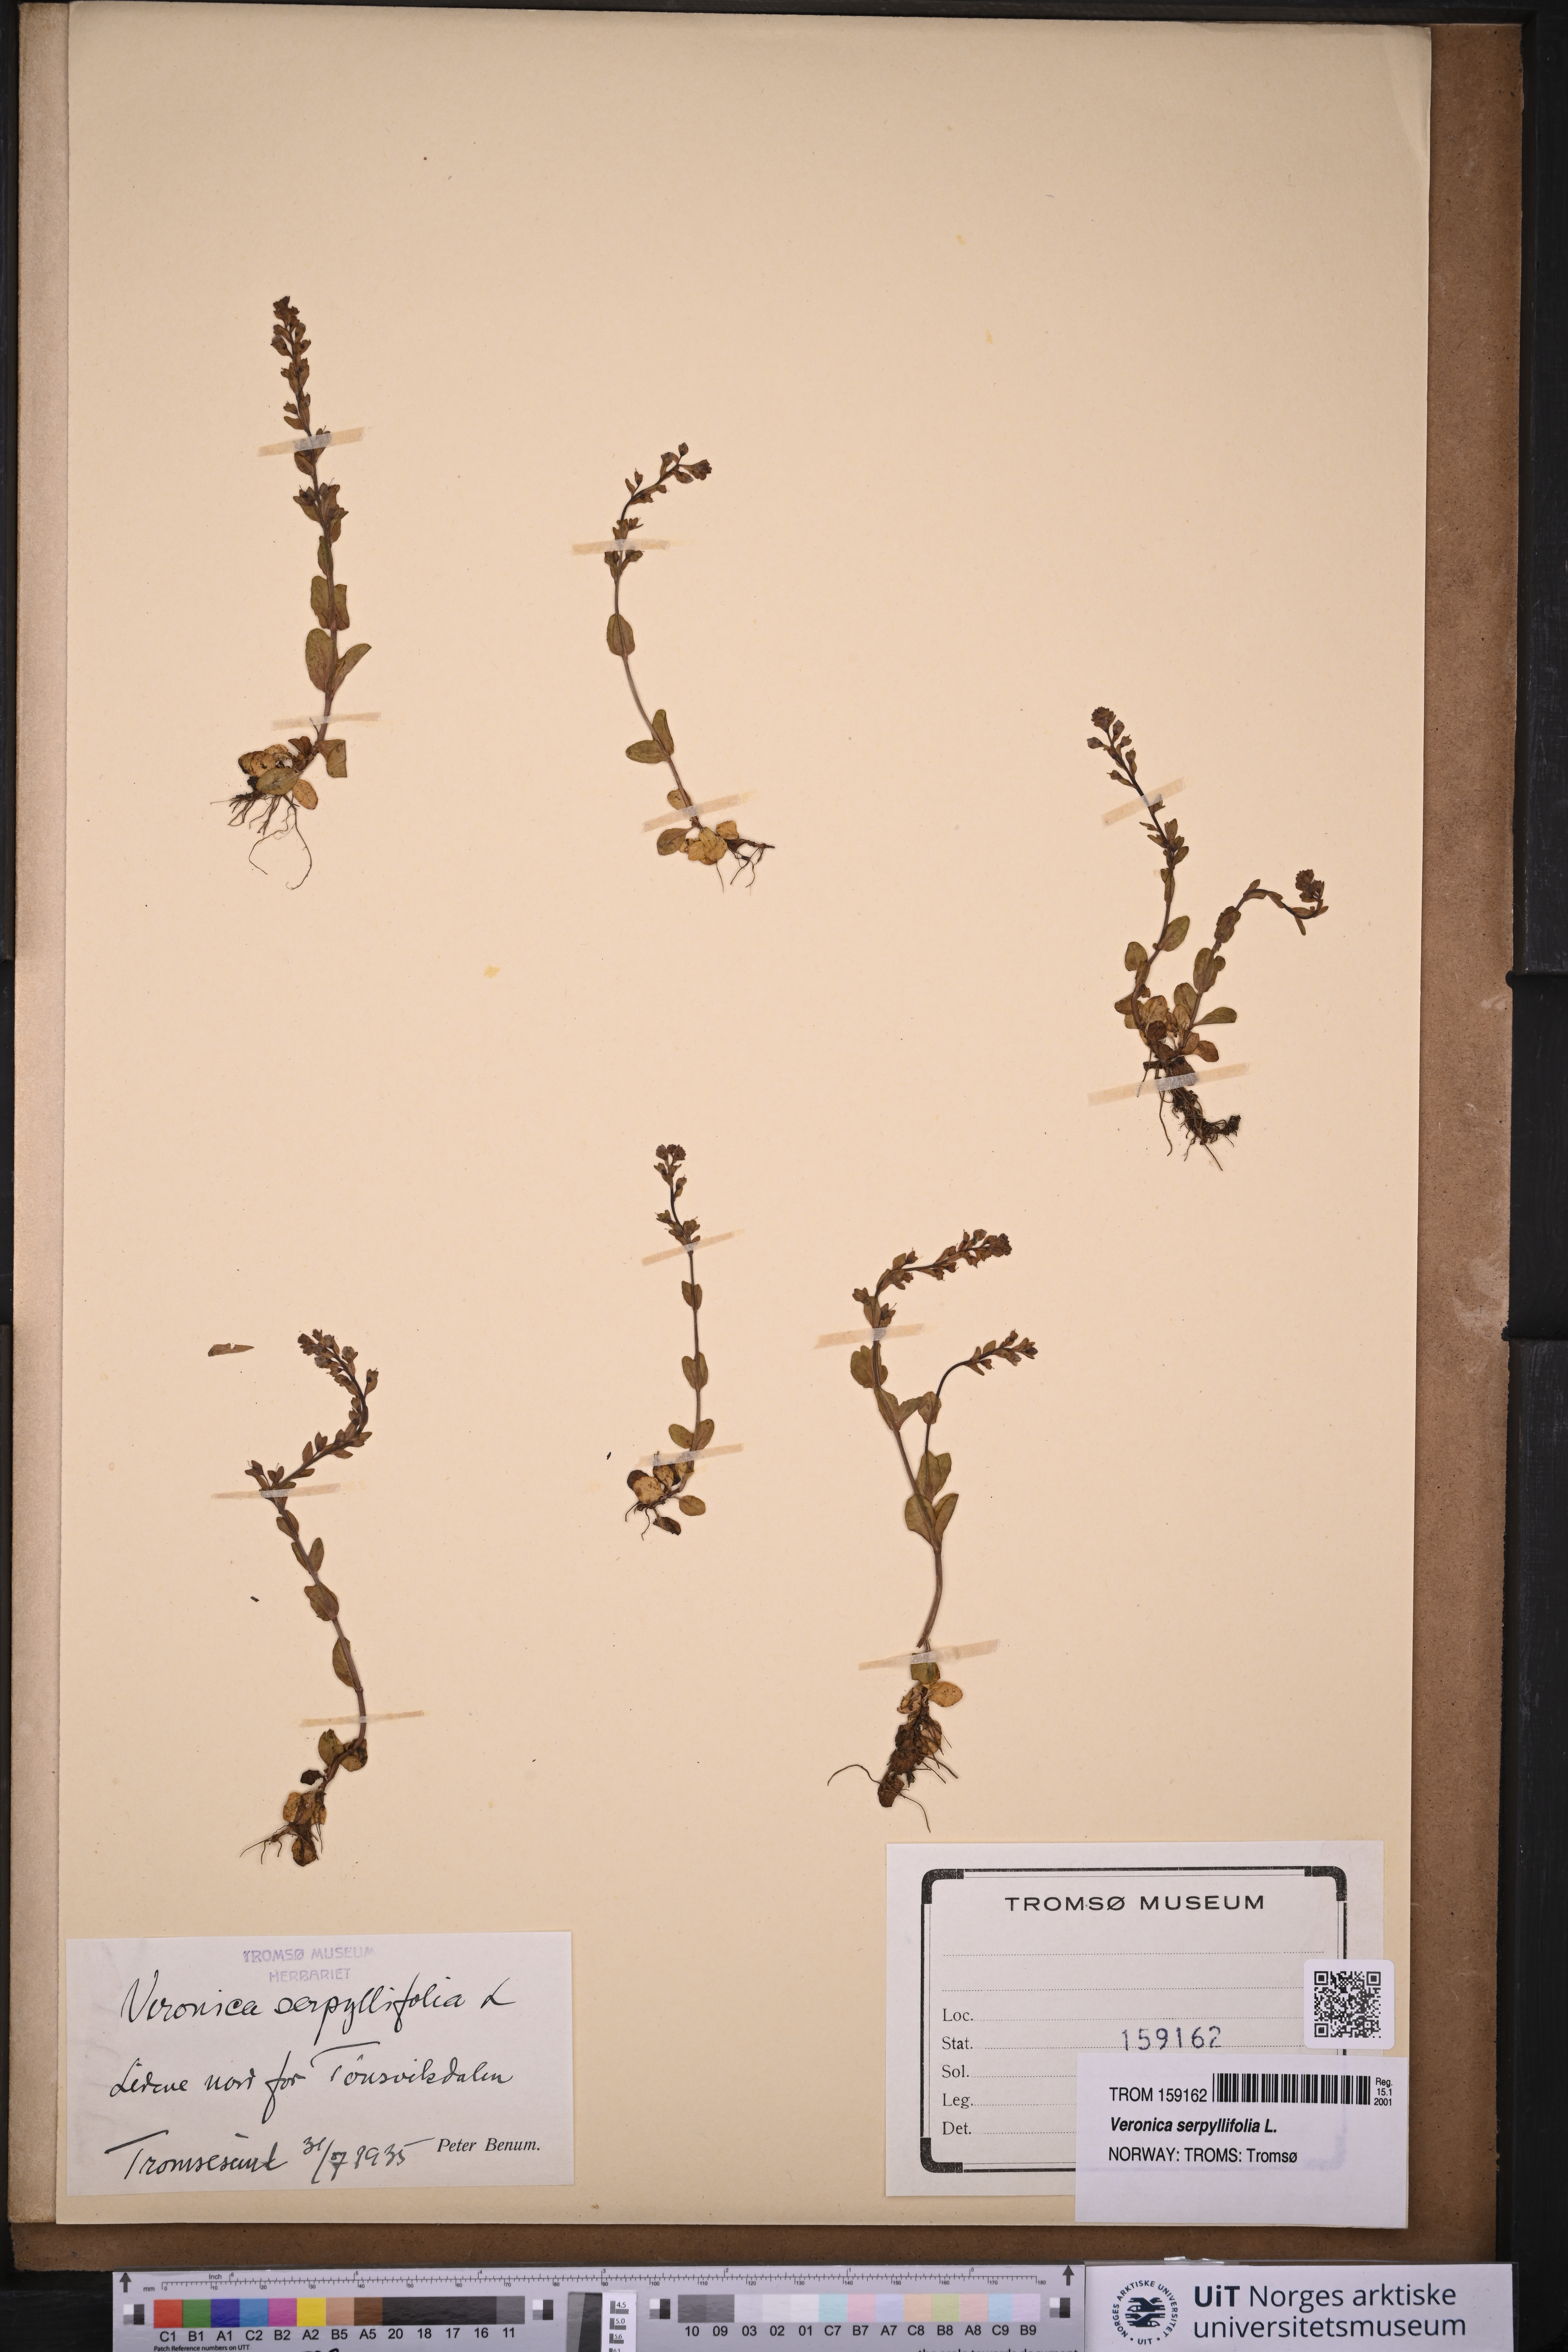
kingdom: Plantae
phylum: Tracheophyta
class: Magnoliopsida
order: Lamiales
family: Plantaginaceae
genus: Veronica
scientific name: Veronica serpyllifolia
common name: Thyme-leaved speedwell
